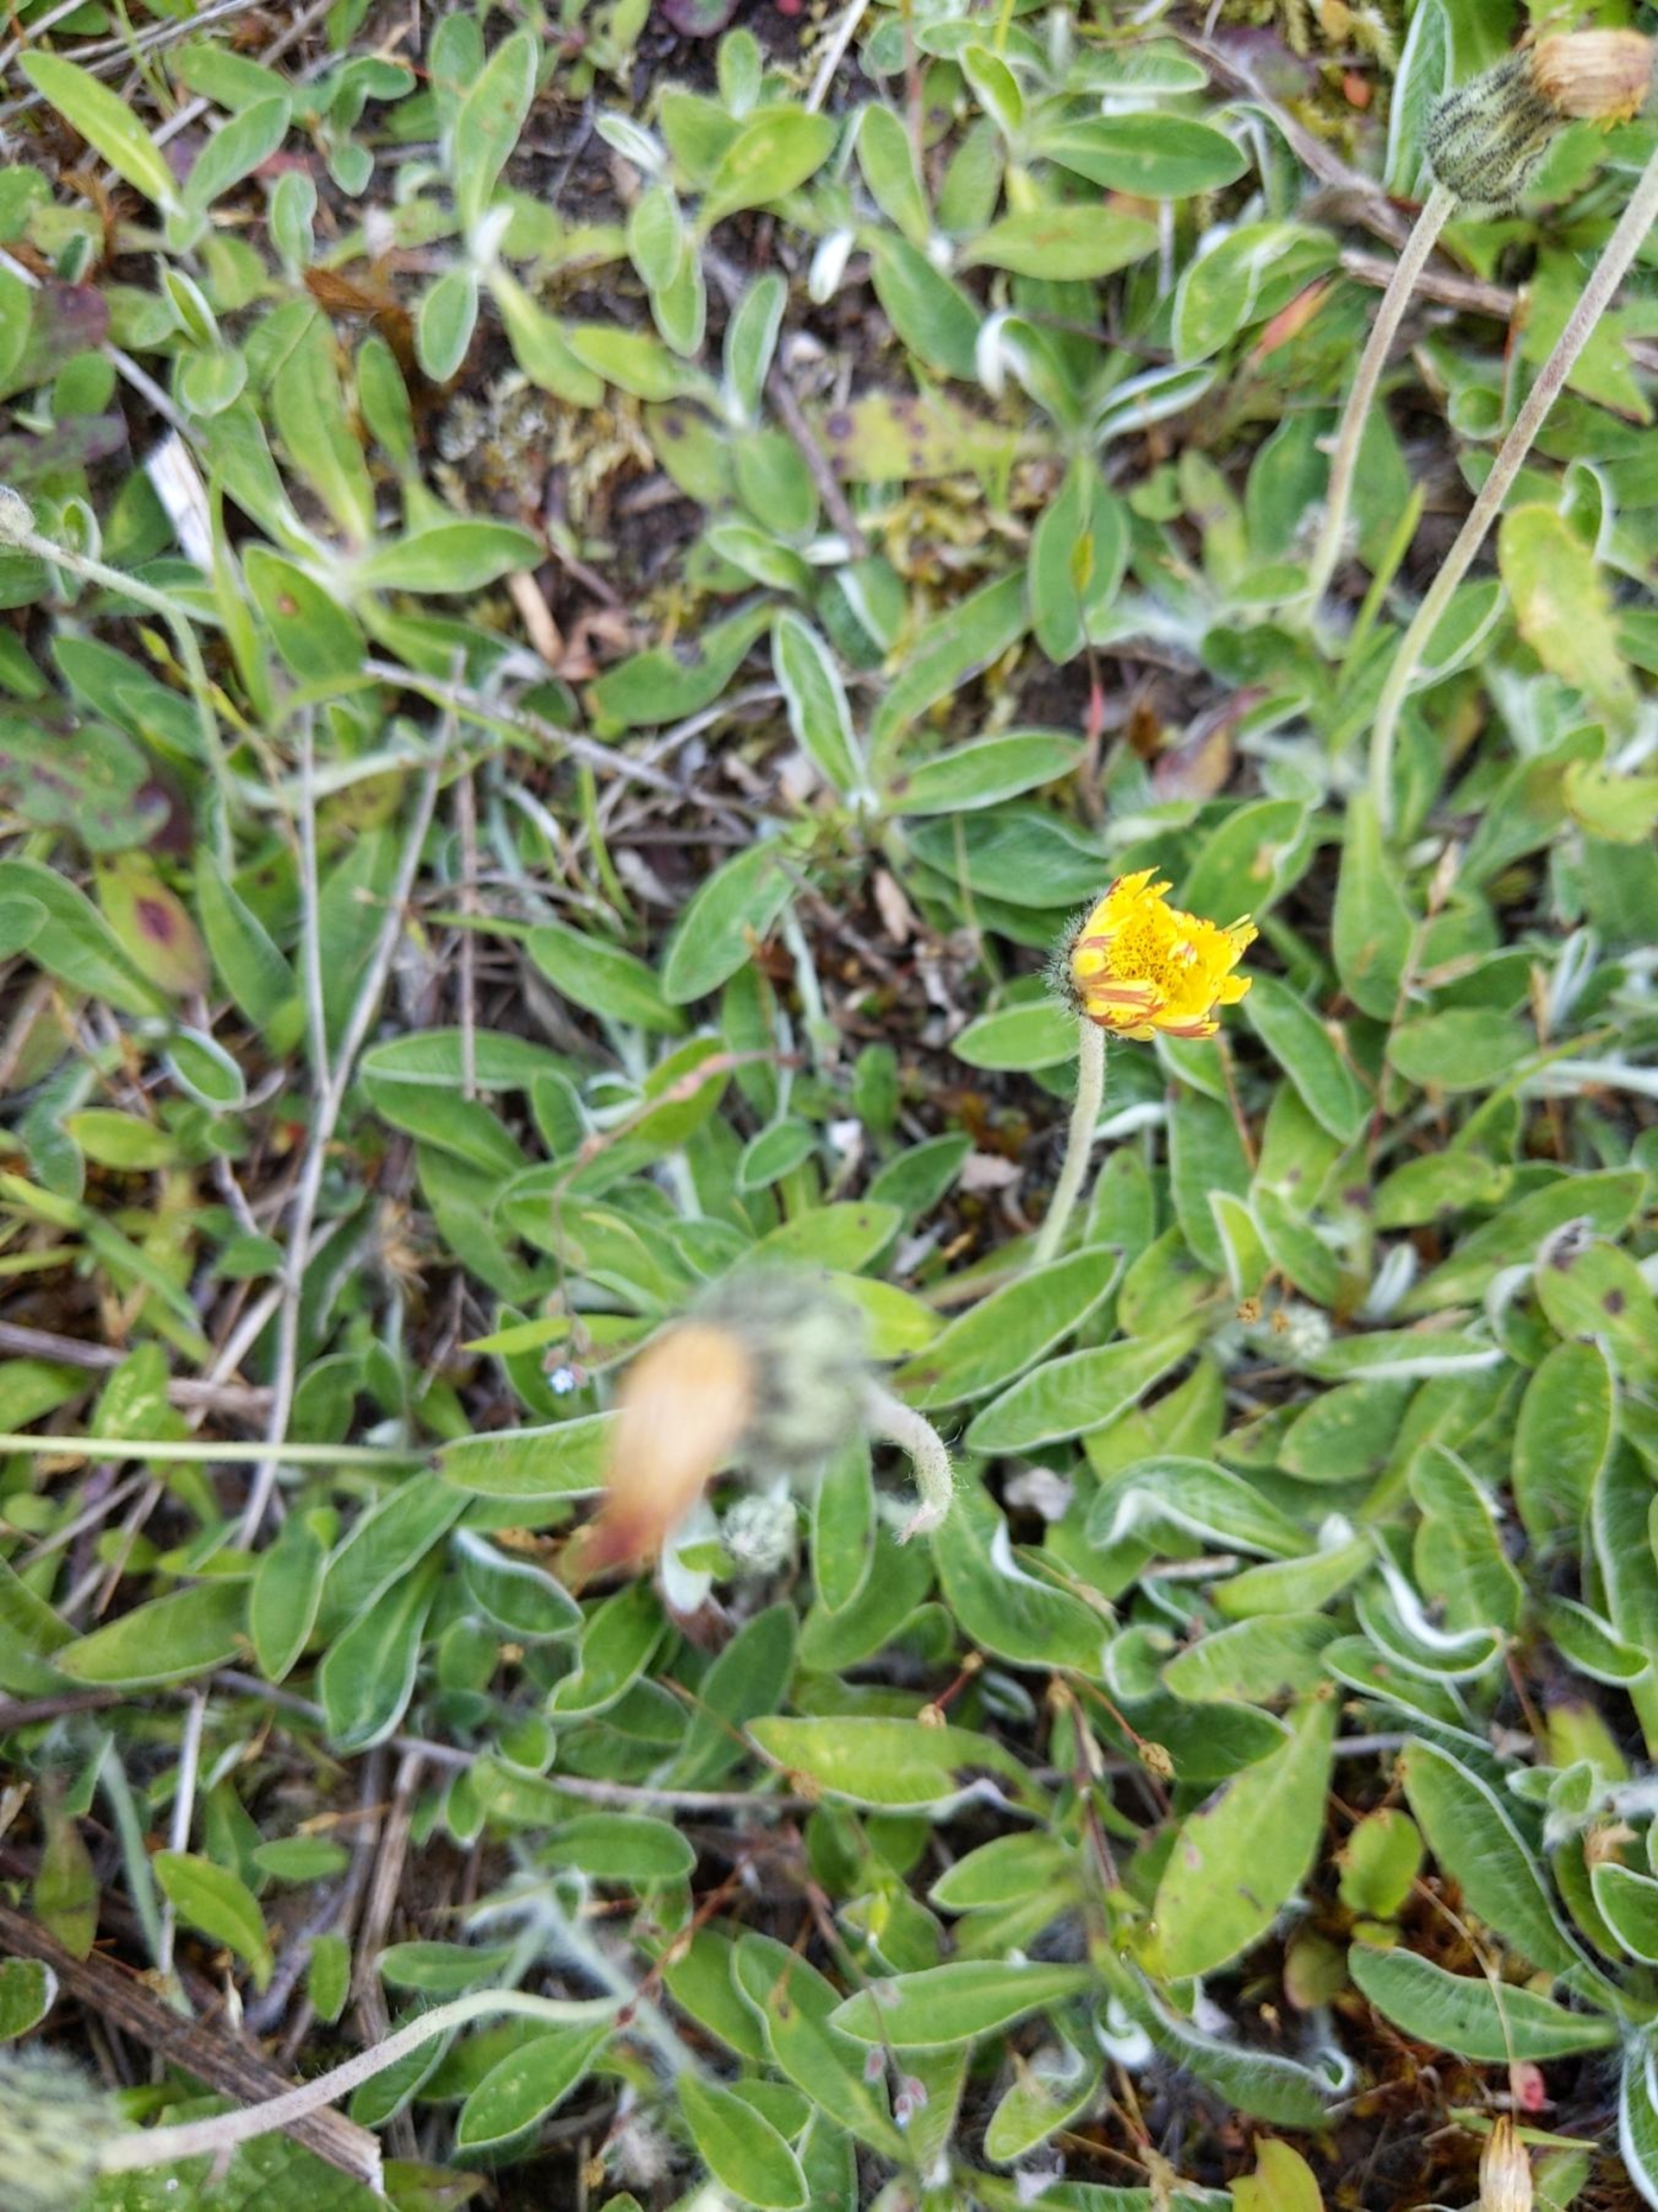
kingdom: Plantae
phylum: Tracheophyta
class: Magnoliopsida
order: Asterales
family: Asteraceae
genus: Pilosella
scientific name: Pilosella officinarum
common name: Håret høgeurt
